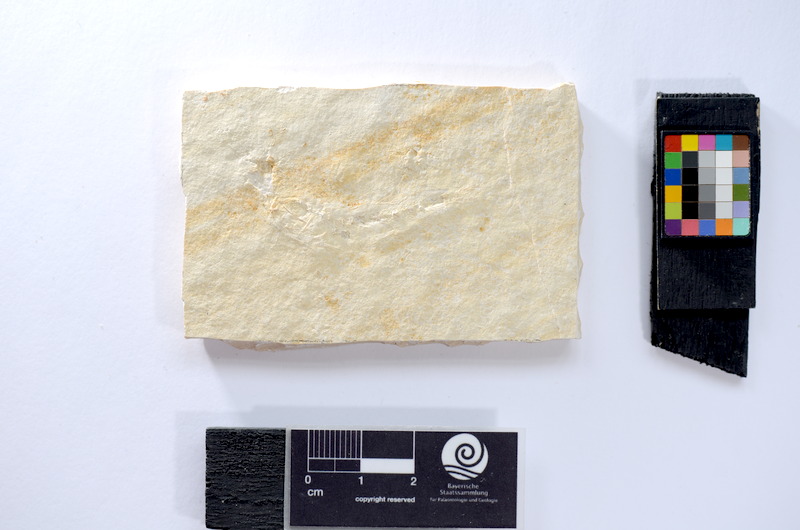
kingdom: Animalia
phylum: Chordata
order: Salmoniformes
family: Orthogonikleithridae
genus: Leptolepides
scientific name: Leptolepides sprattiformis
